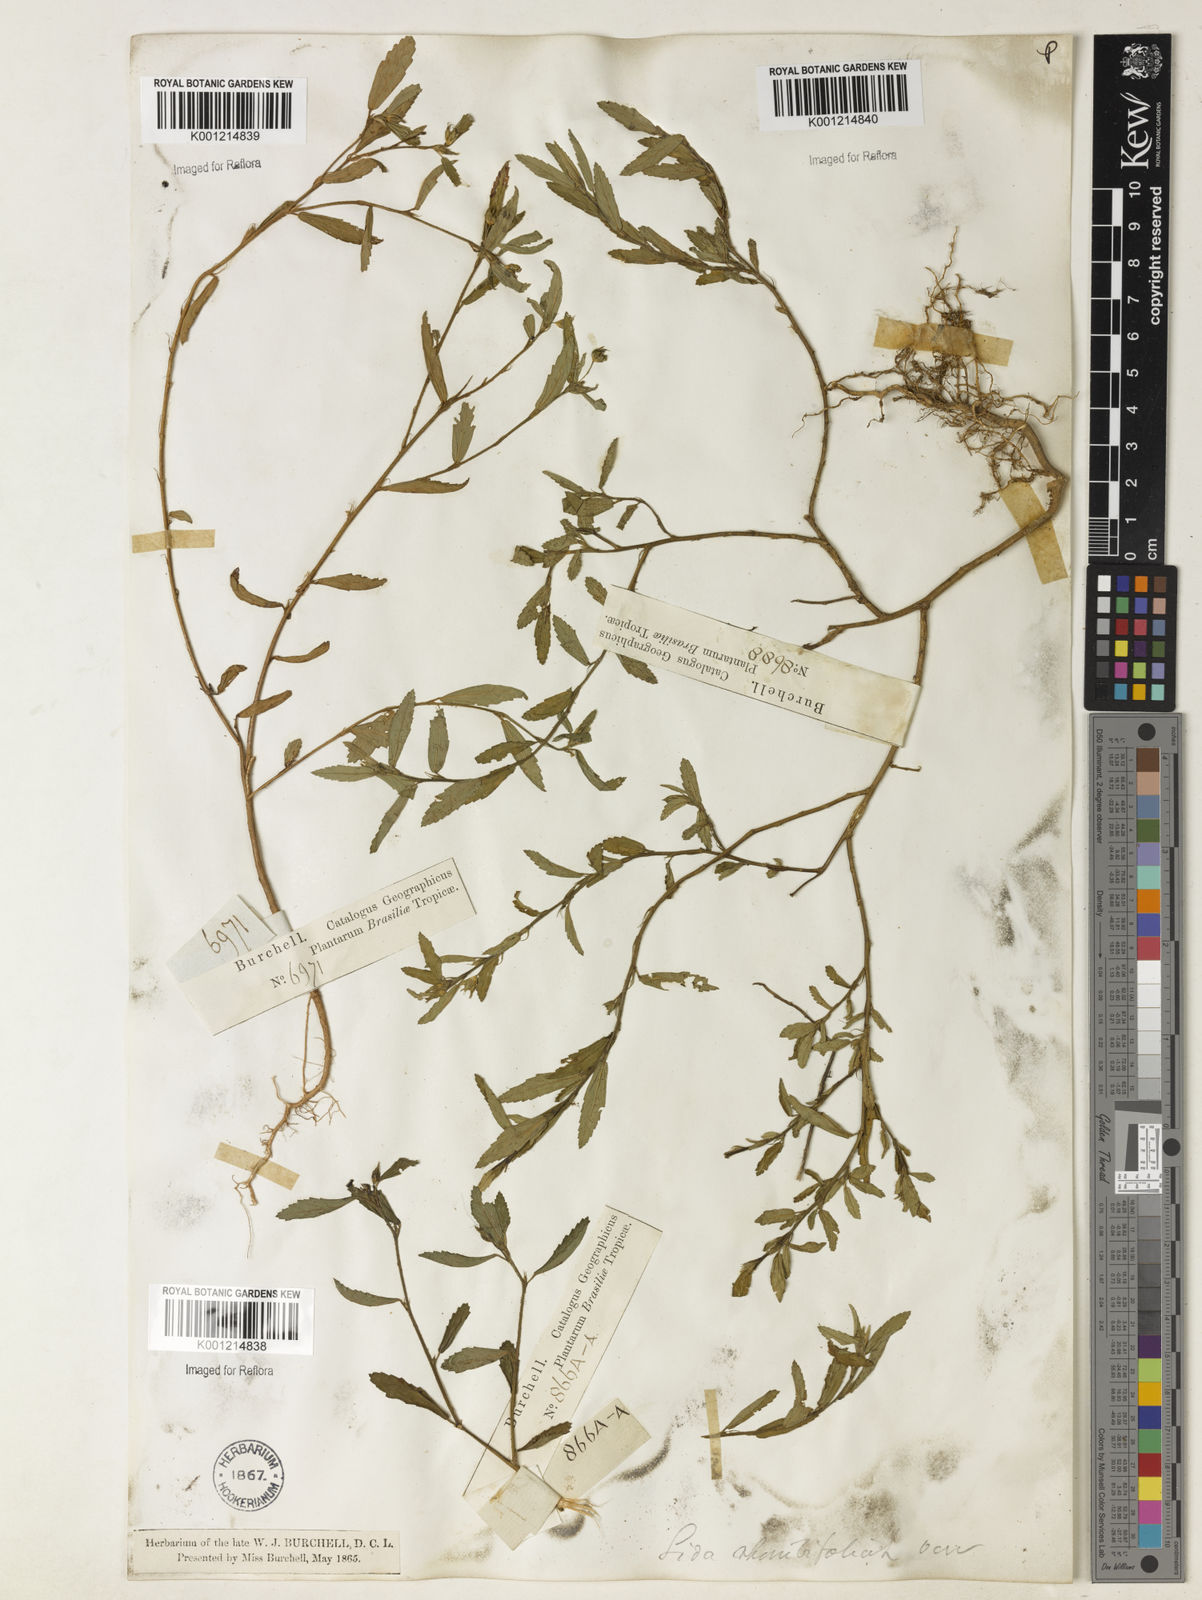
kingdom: Plantae
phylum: Tracheophyta
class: Magnoliopsida
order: Malvales
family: Malvaceae
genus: Sida
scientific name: Sida rhombifolia
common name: Queensland-hemp
